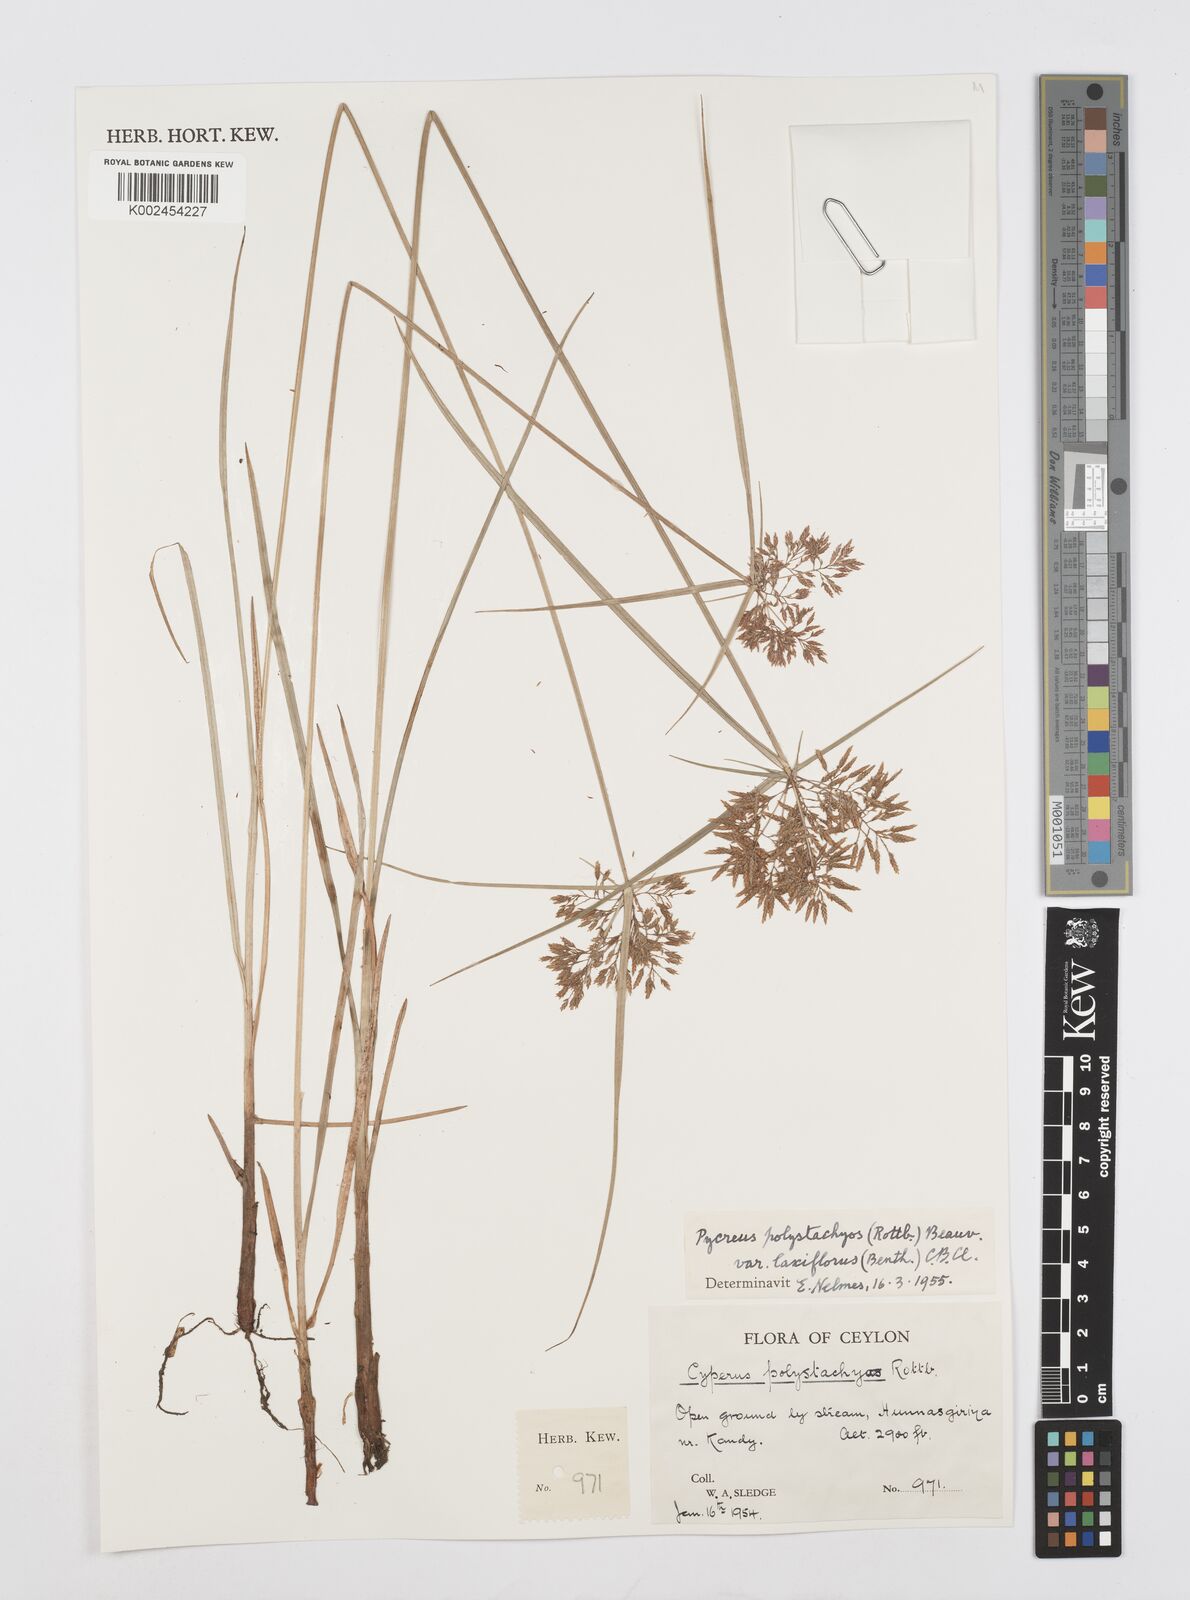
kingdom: Plantae
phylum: Tracheophyta
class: Liliopsida
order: Poales
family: Cyperaceae
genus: Cyperus
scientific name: Cyperus polystachyos
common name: Bunchy flat sedge
